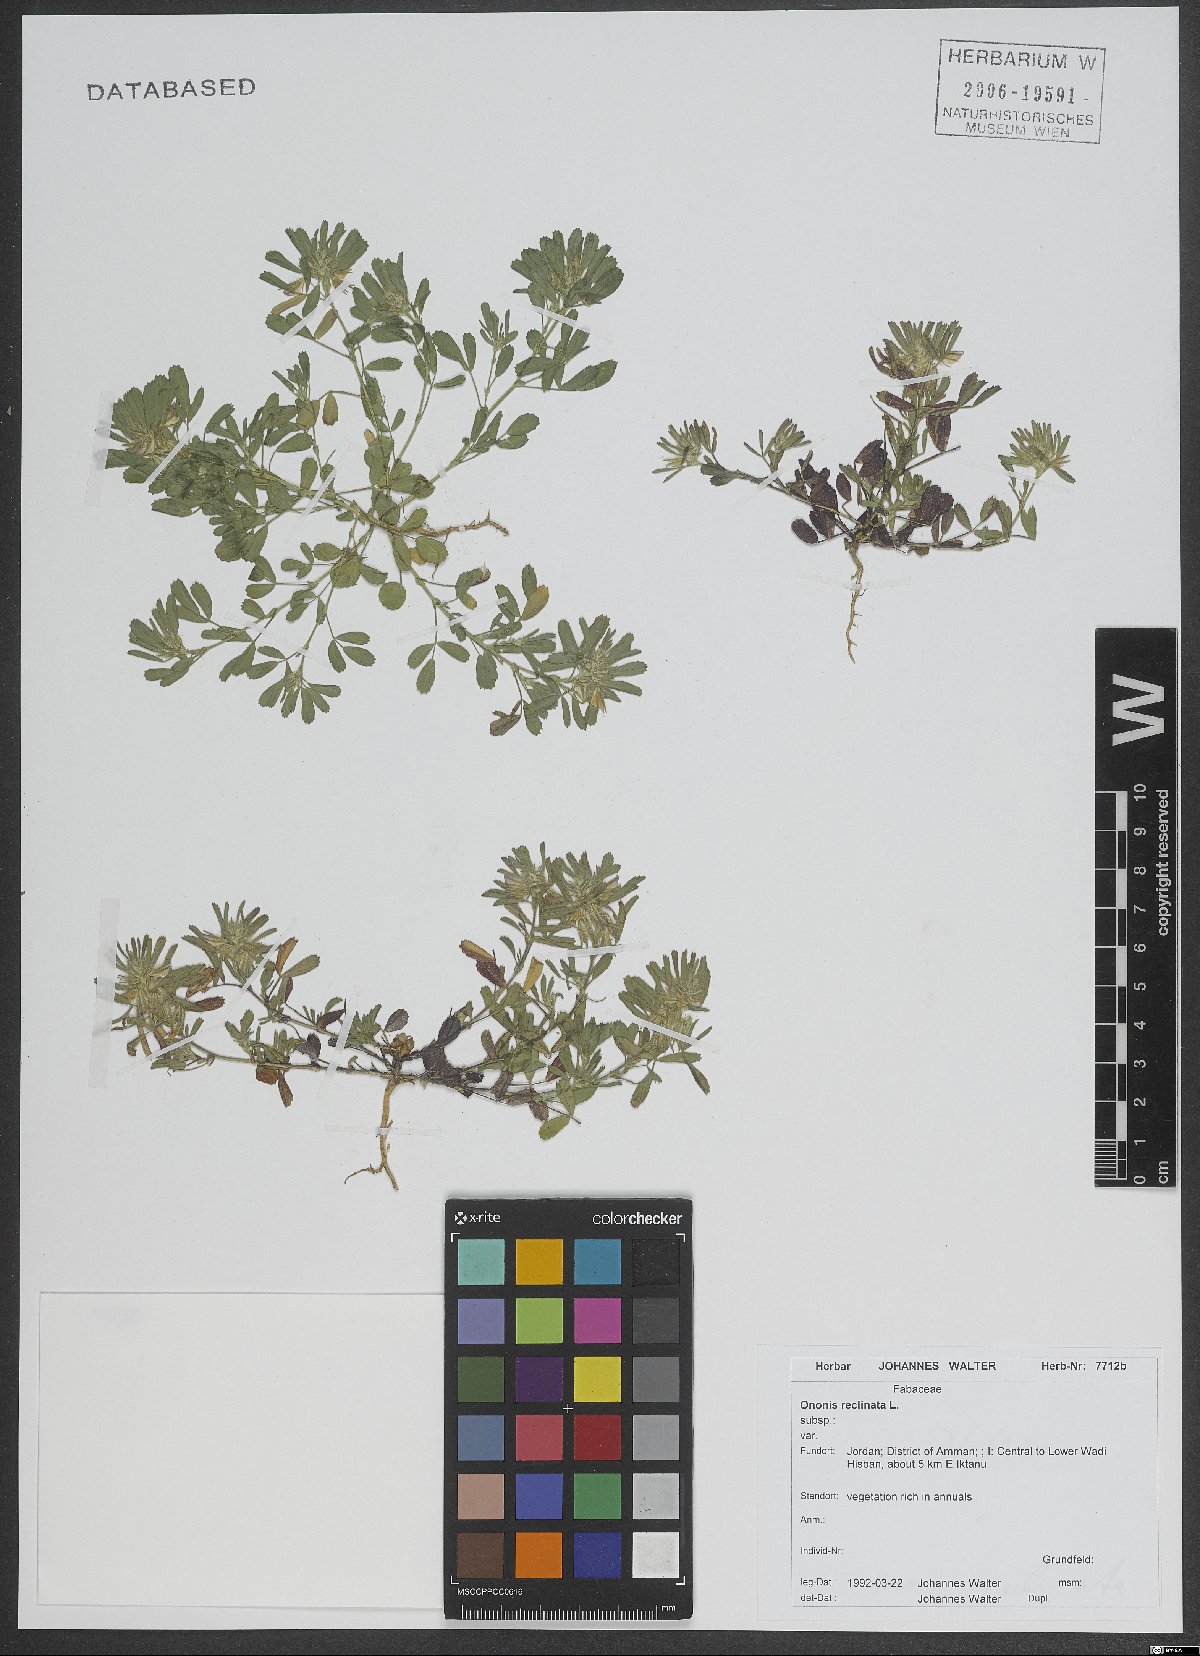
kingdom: Plantae
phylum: Tracheophyta
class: Magnoliopsida
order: Fabales
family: Fabaceae
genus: Ononis
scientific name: Ononis reclinata
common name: Small restharrow
